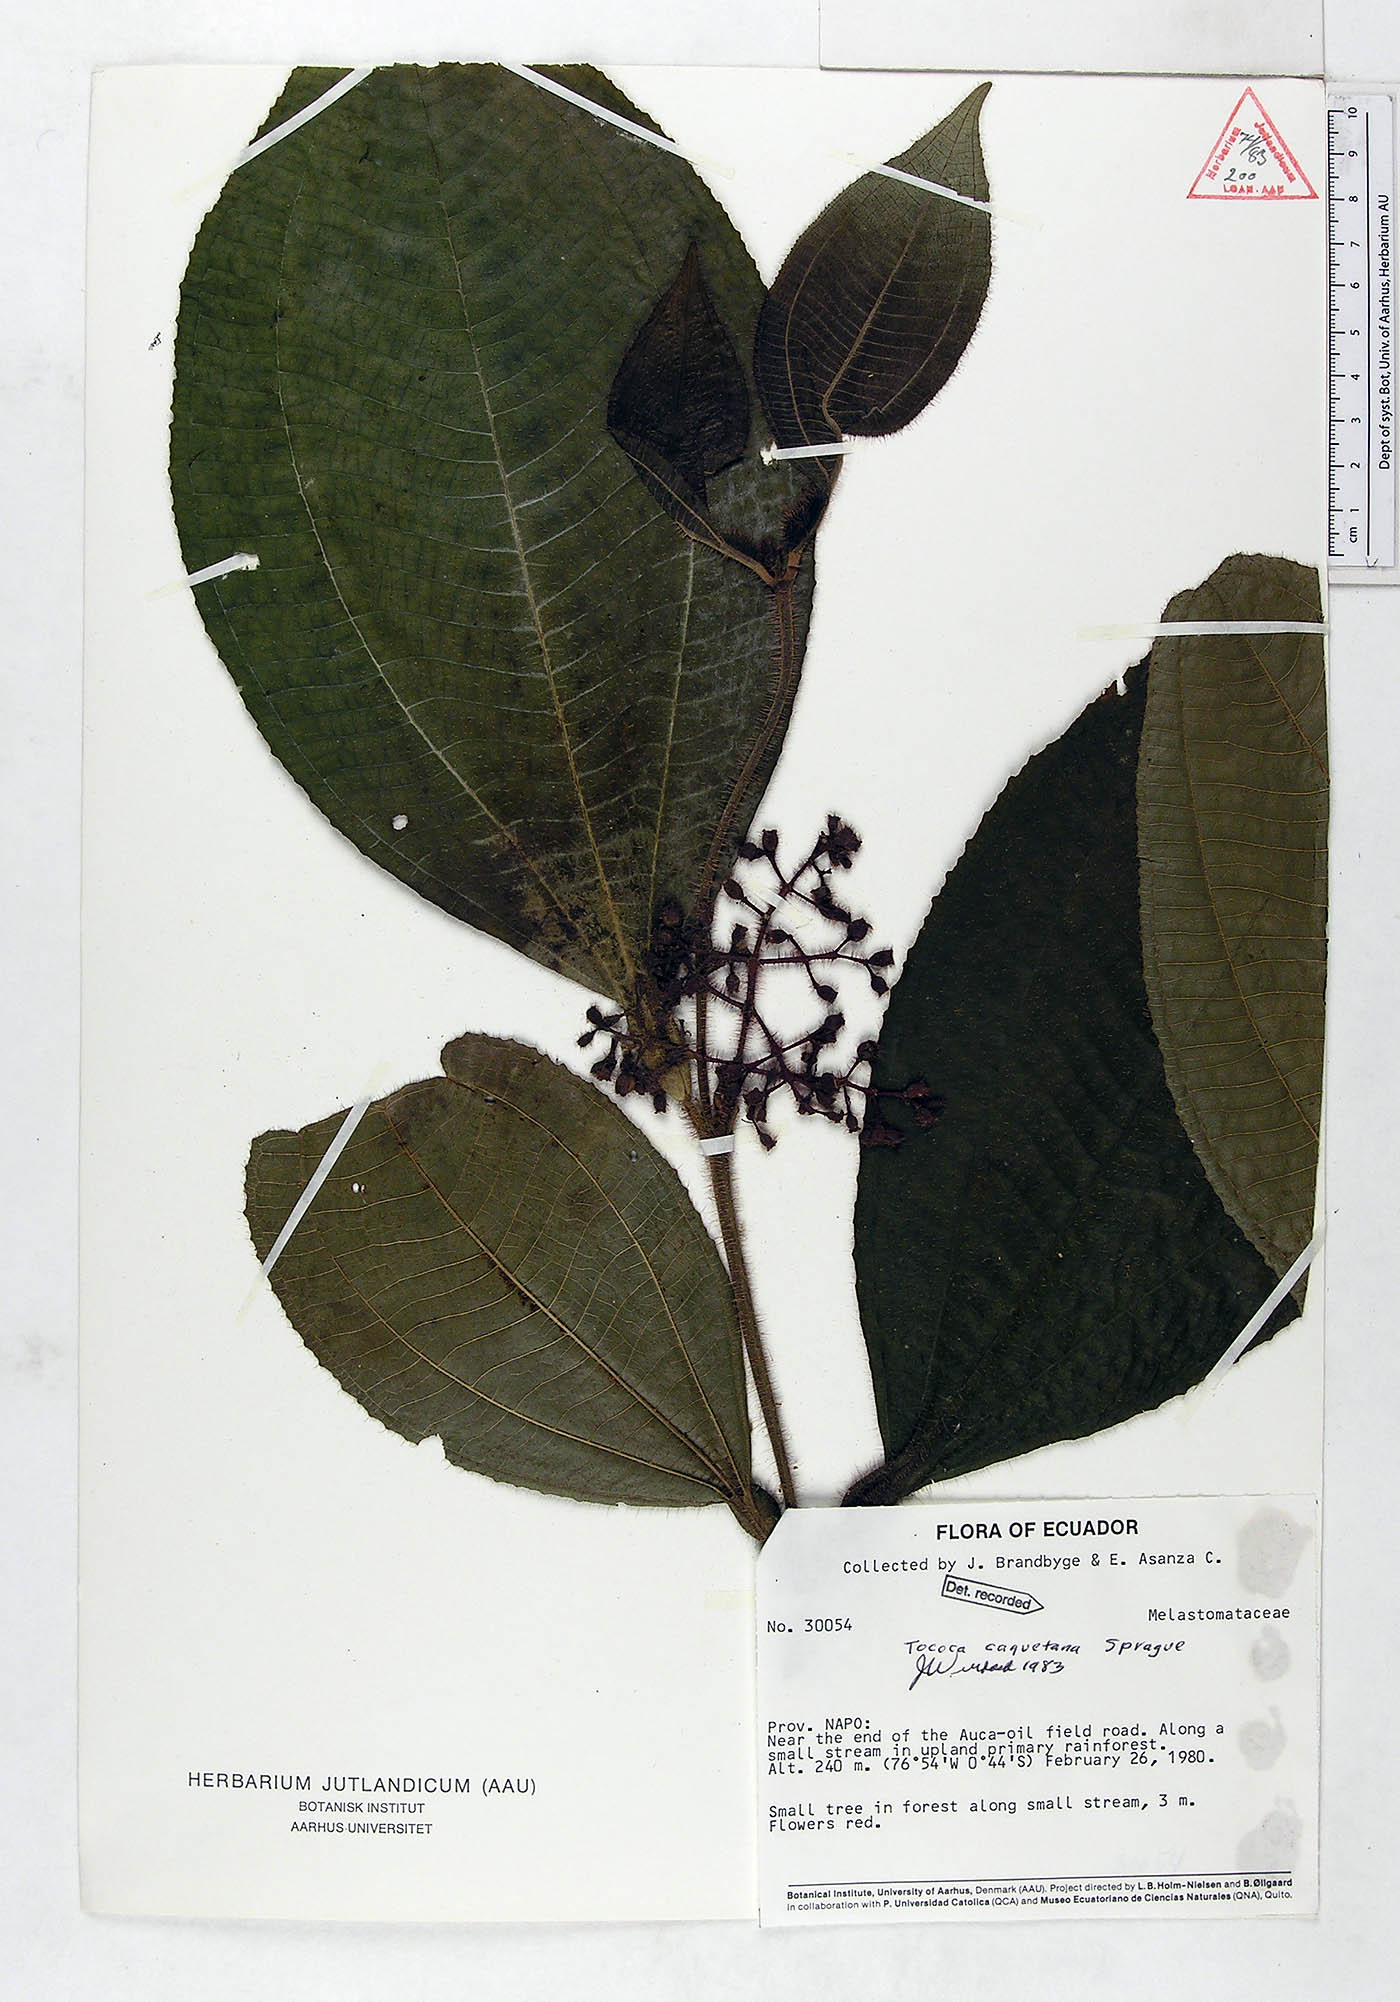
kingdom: Plantae
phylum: Tracheophyta
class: Magnoliopsida
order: Myrtales
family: Melastomataceae
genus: Miconia
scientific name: Miconia caquetana
